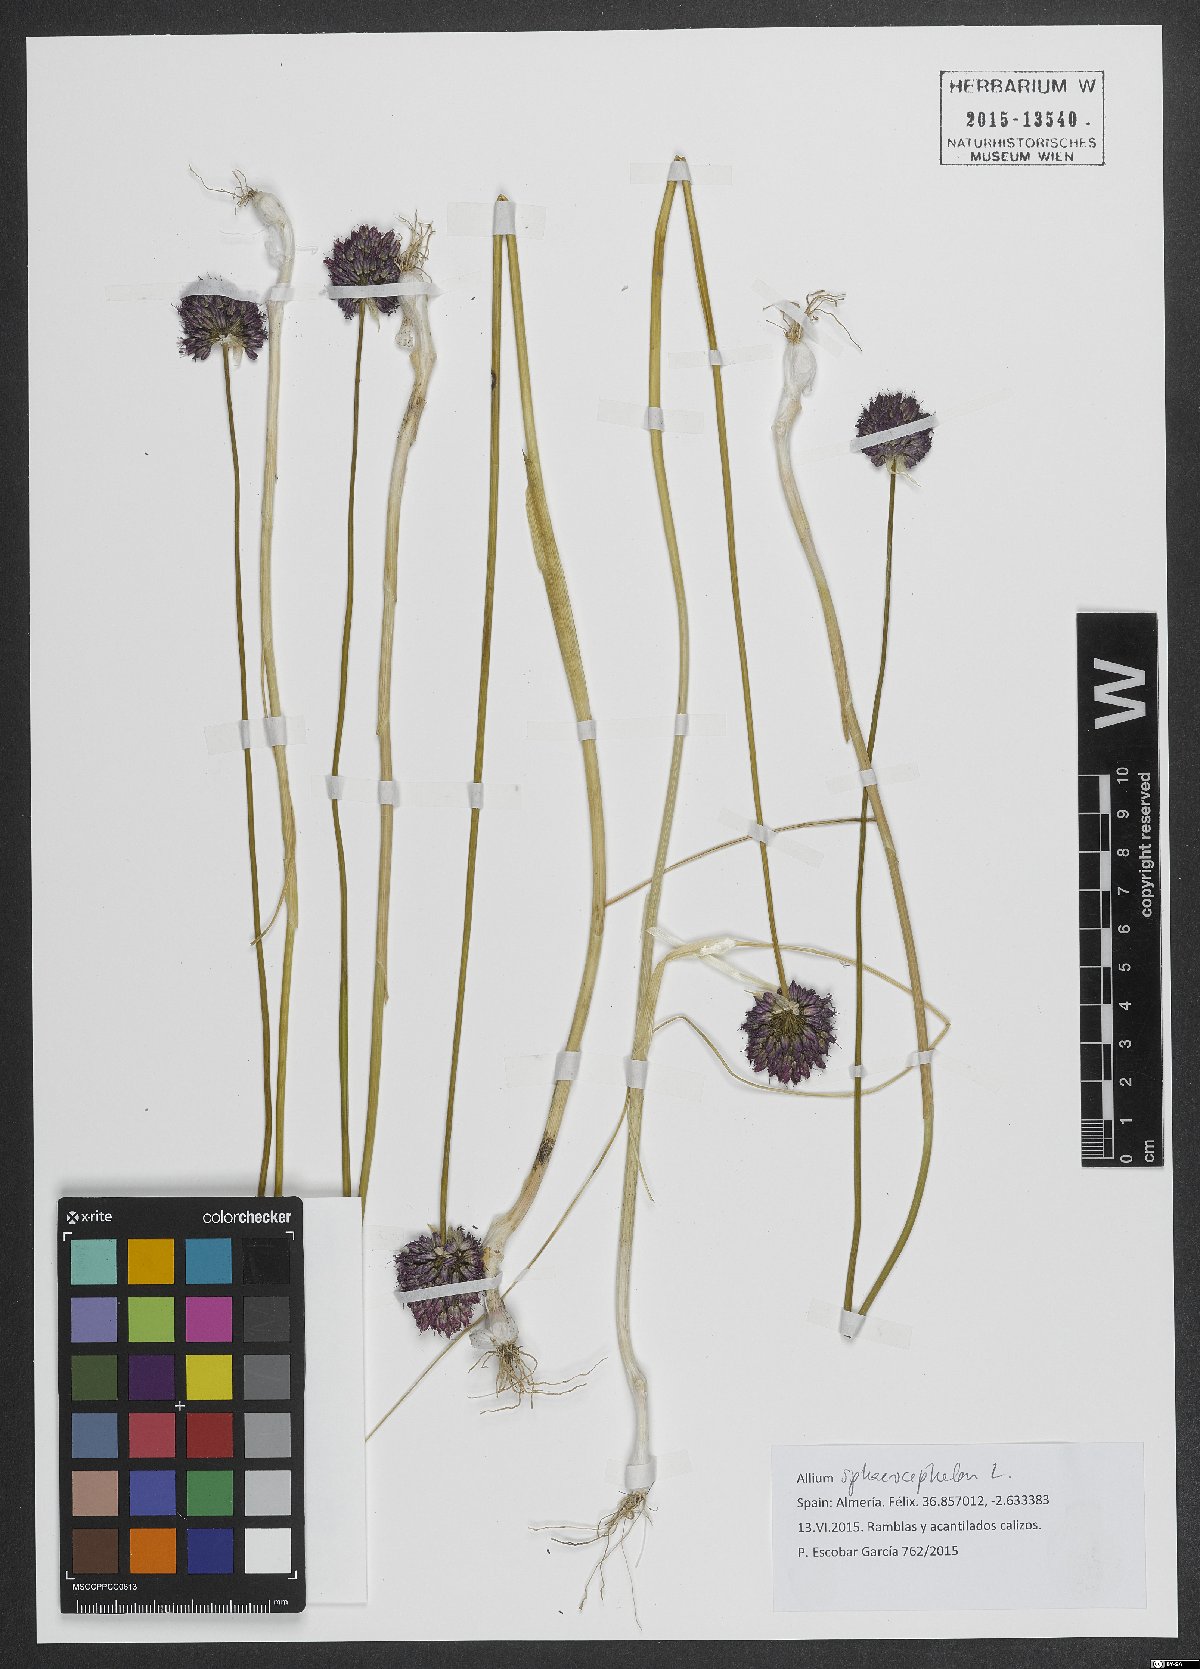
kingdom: Plantae
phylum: Tracheophyta
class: Liliopsida
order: Asparagales
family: Amaryllidaceae
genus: Allium
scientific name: Allium sphaerocephalon
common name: Round-headed leek
